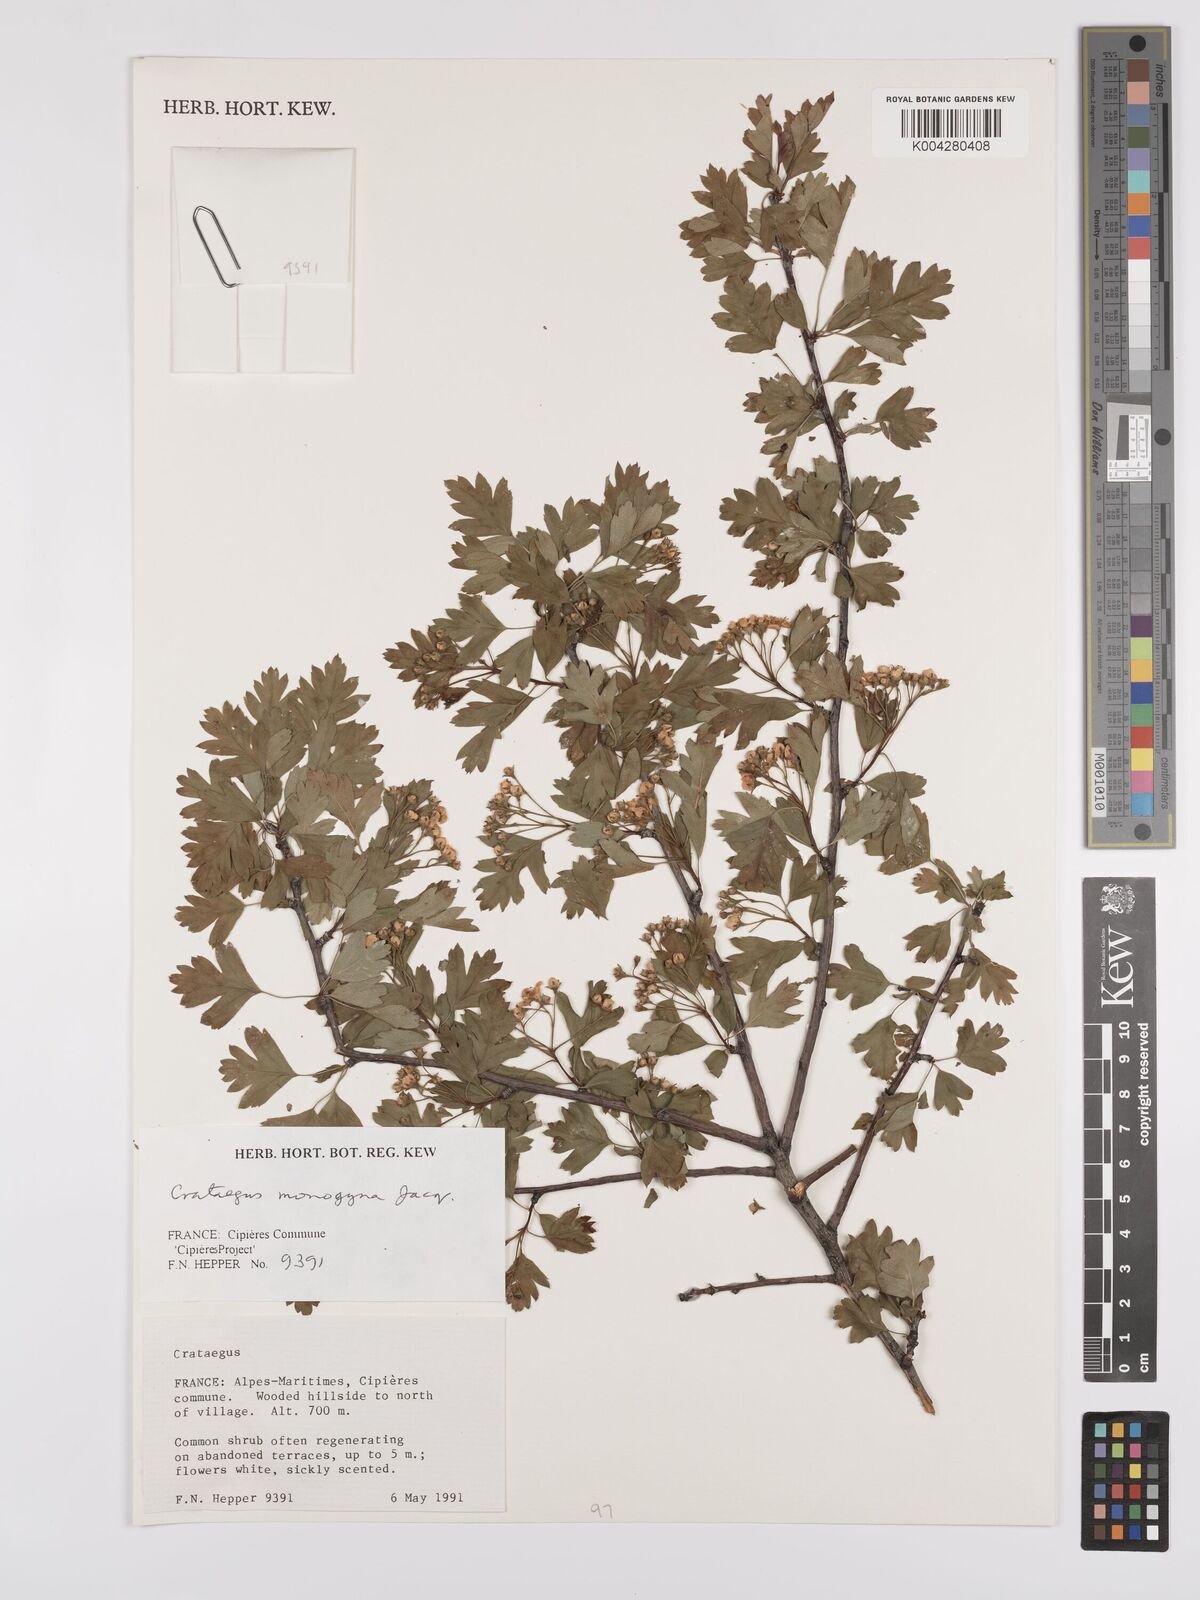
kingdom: Plantae
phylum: Tracheophyta
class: Magnoliopsida
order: Rosales
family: Rosaceae
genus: Crataegus
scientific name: Crataegus monogyna
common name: Hawthorn
